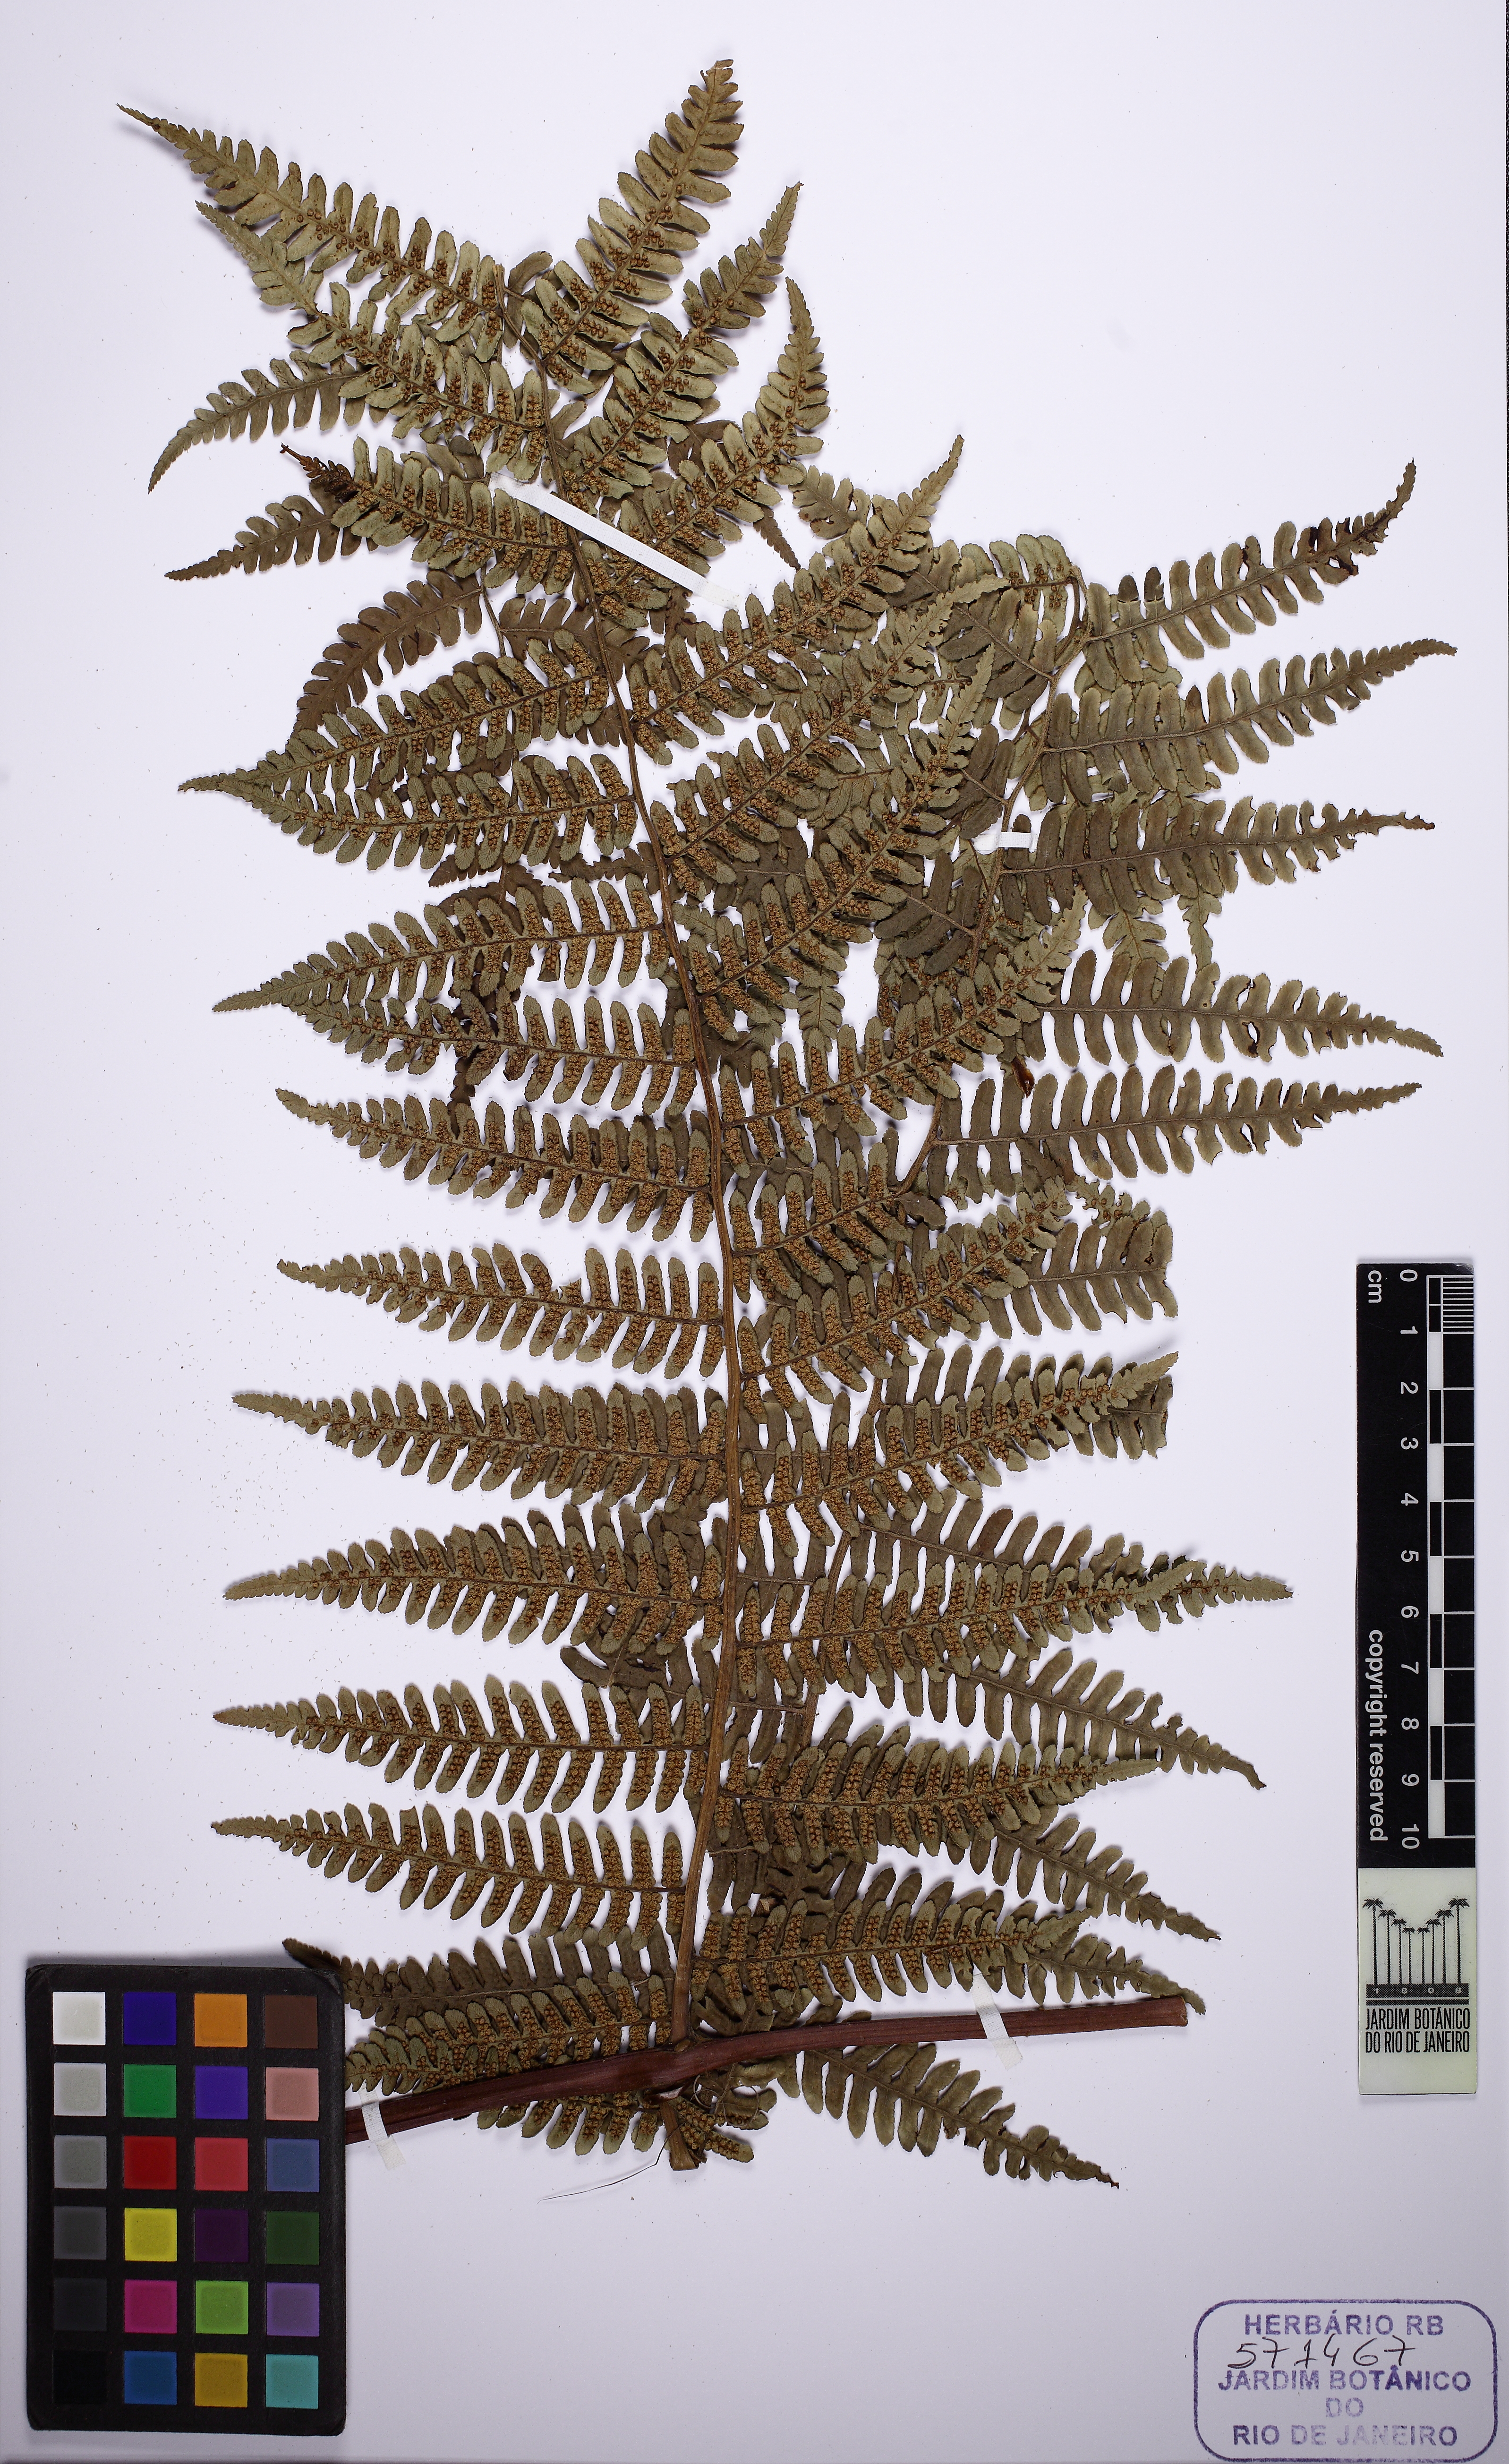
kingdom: Plantae
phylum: Tracheophyta
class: Polypodiopsida
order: Cyatheales
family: Cyatheaceae
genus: Cyathea
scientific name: Cyathea
